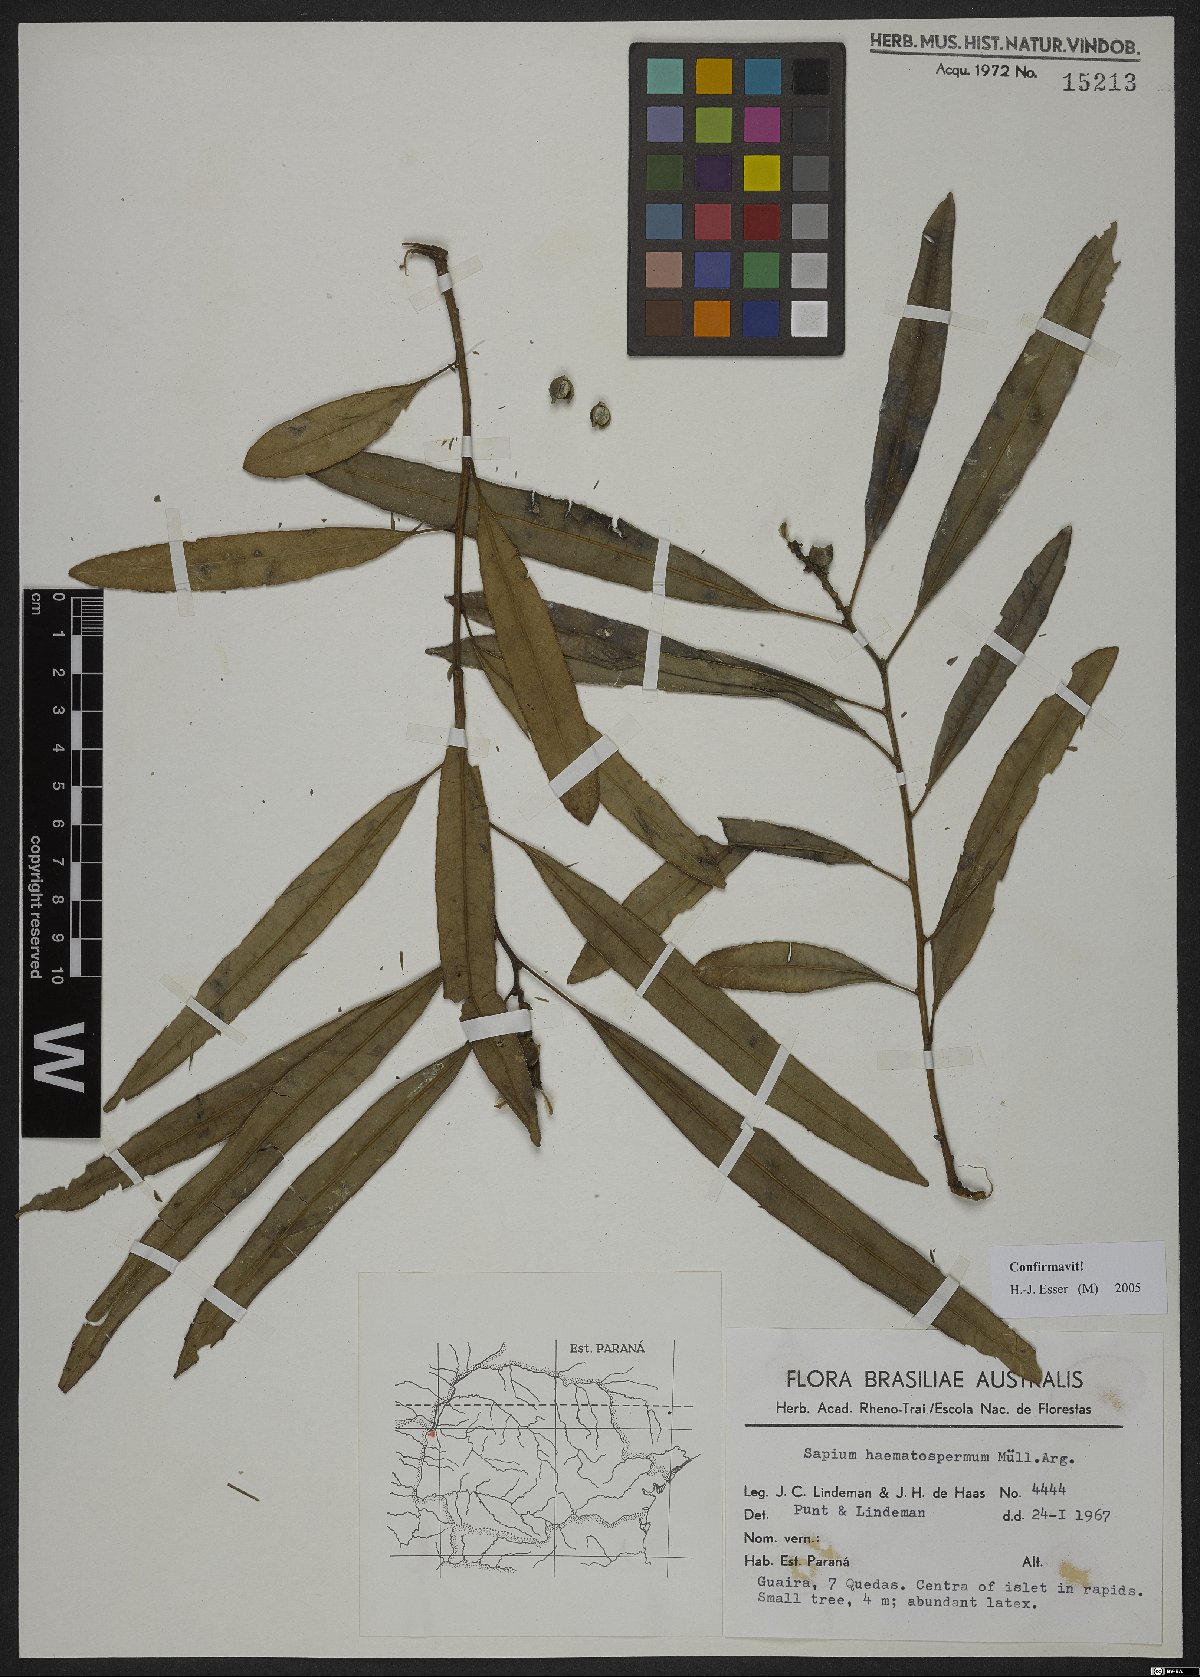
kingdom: Plantae
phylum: Tracheophyta
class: Magnoliopsida
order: Malpighiales
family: Euphorbiaceae
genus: Sapium
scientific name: Sapium haematospermum
